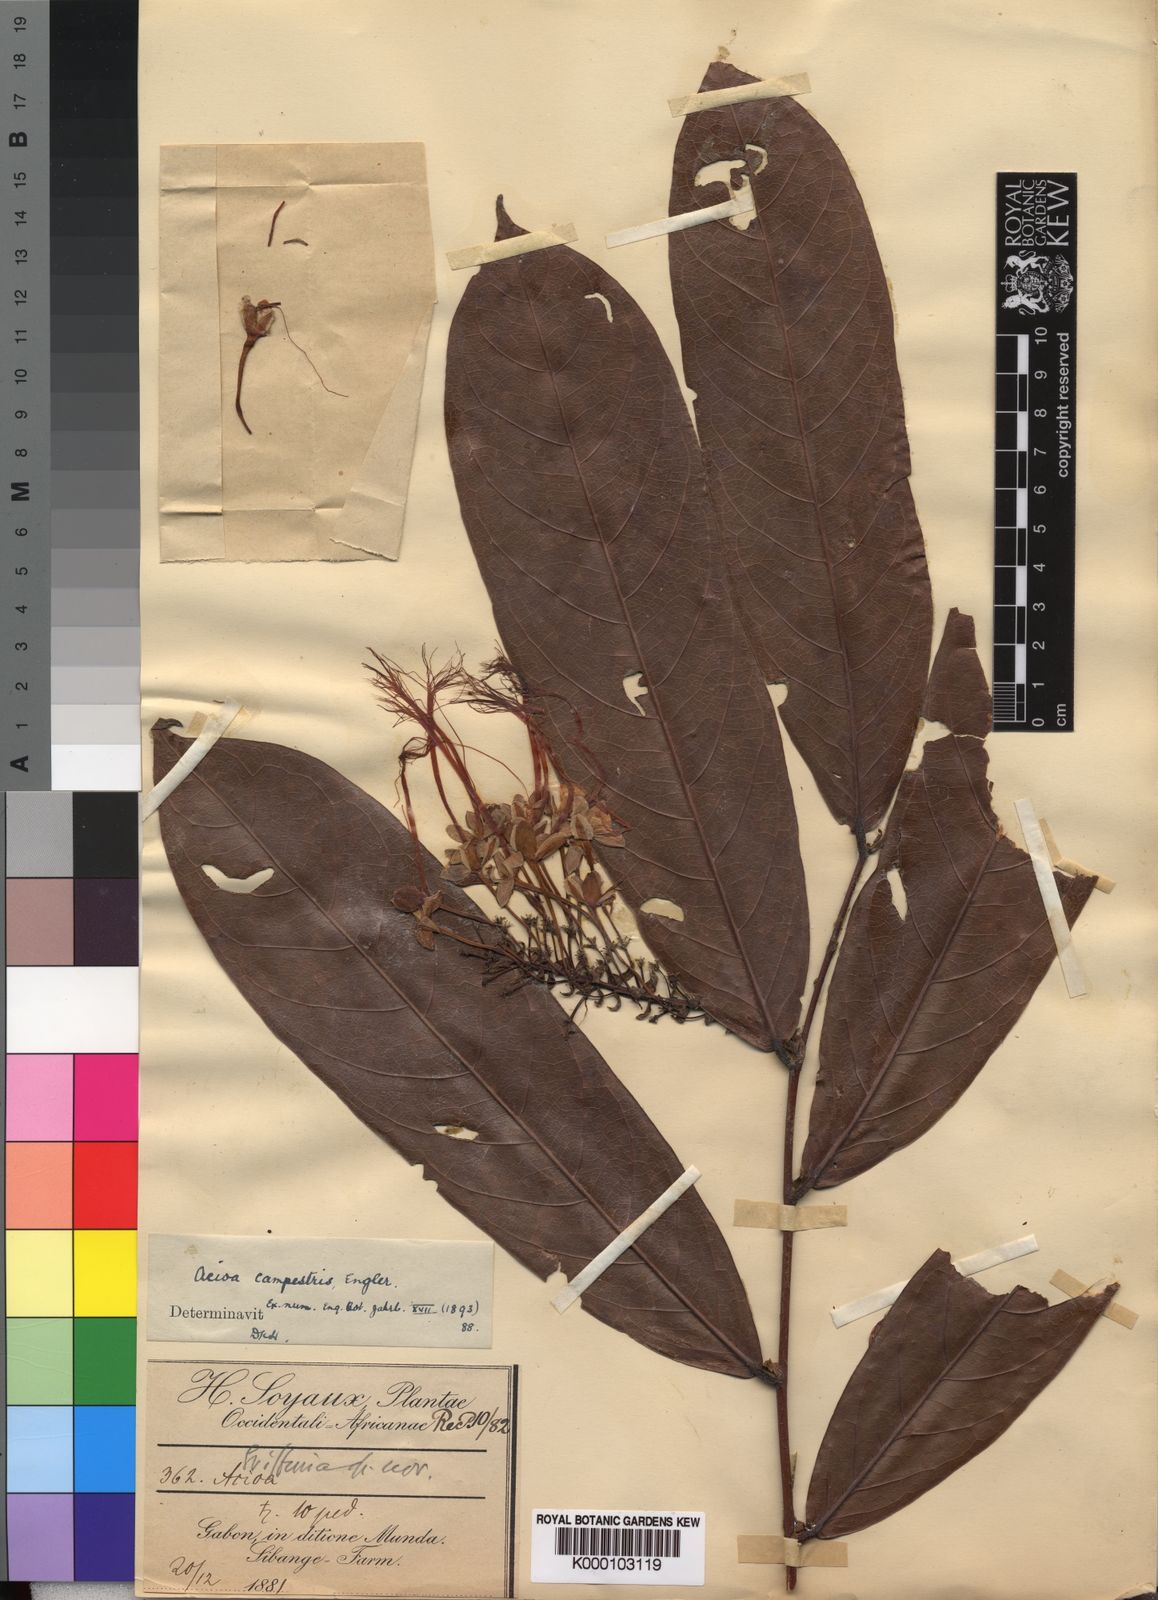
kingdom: Plantae
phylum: Tracheophyta
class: Magnoliopsida
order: Malpighiales
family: Chrysobalanaceae
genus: Dactyladenia
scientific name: Dactyladenia campestris
